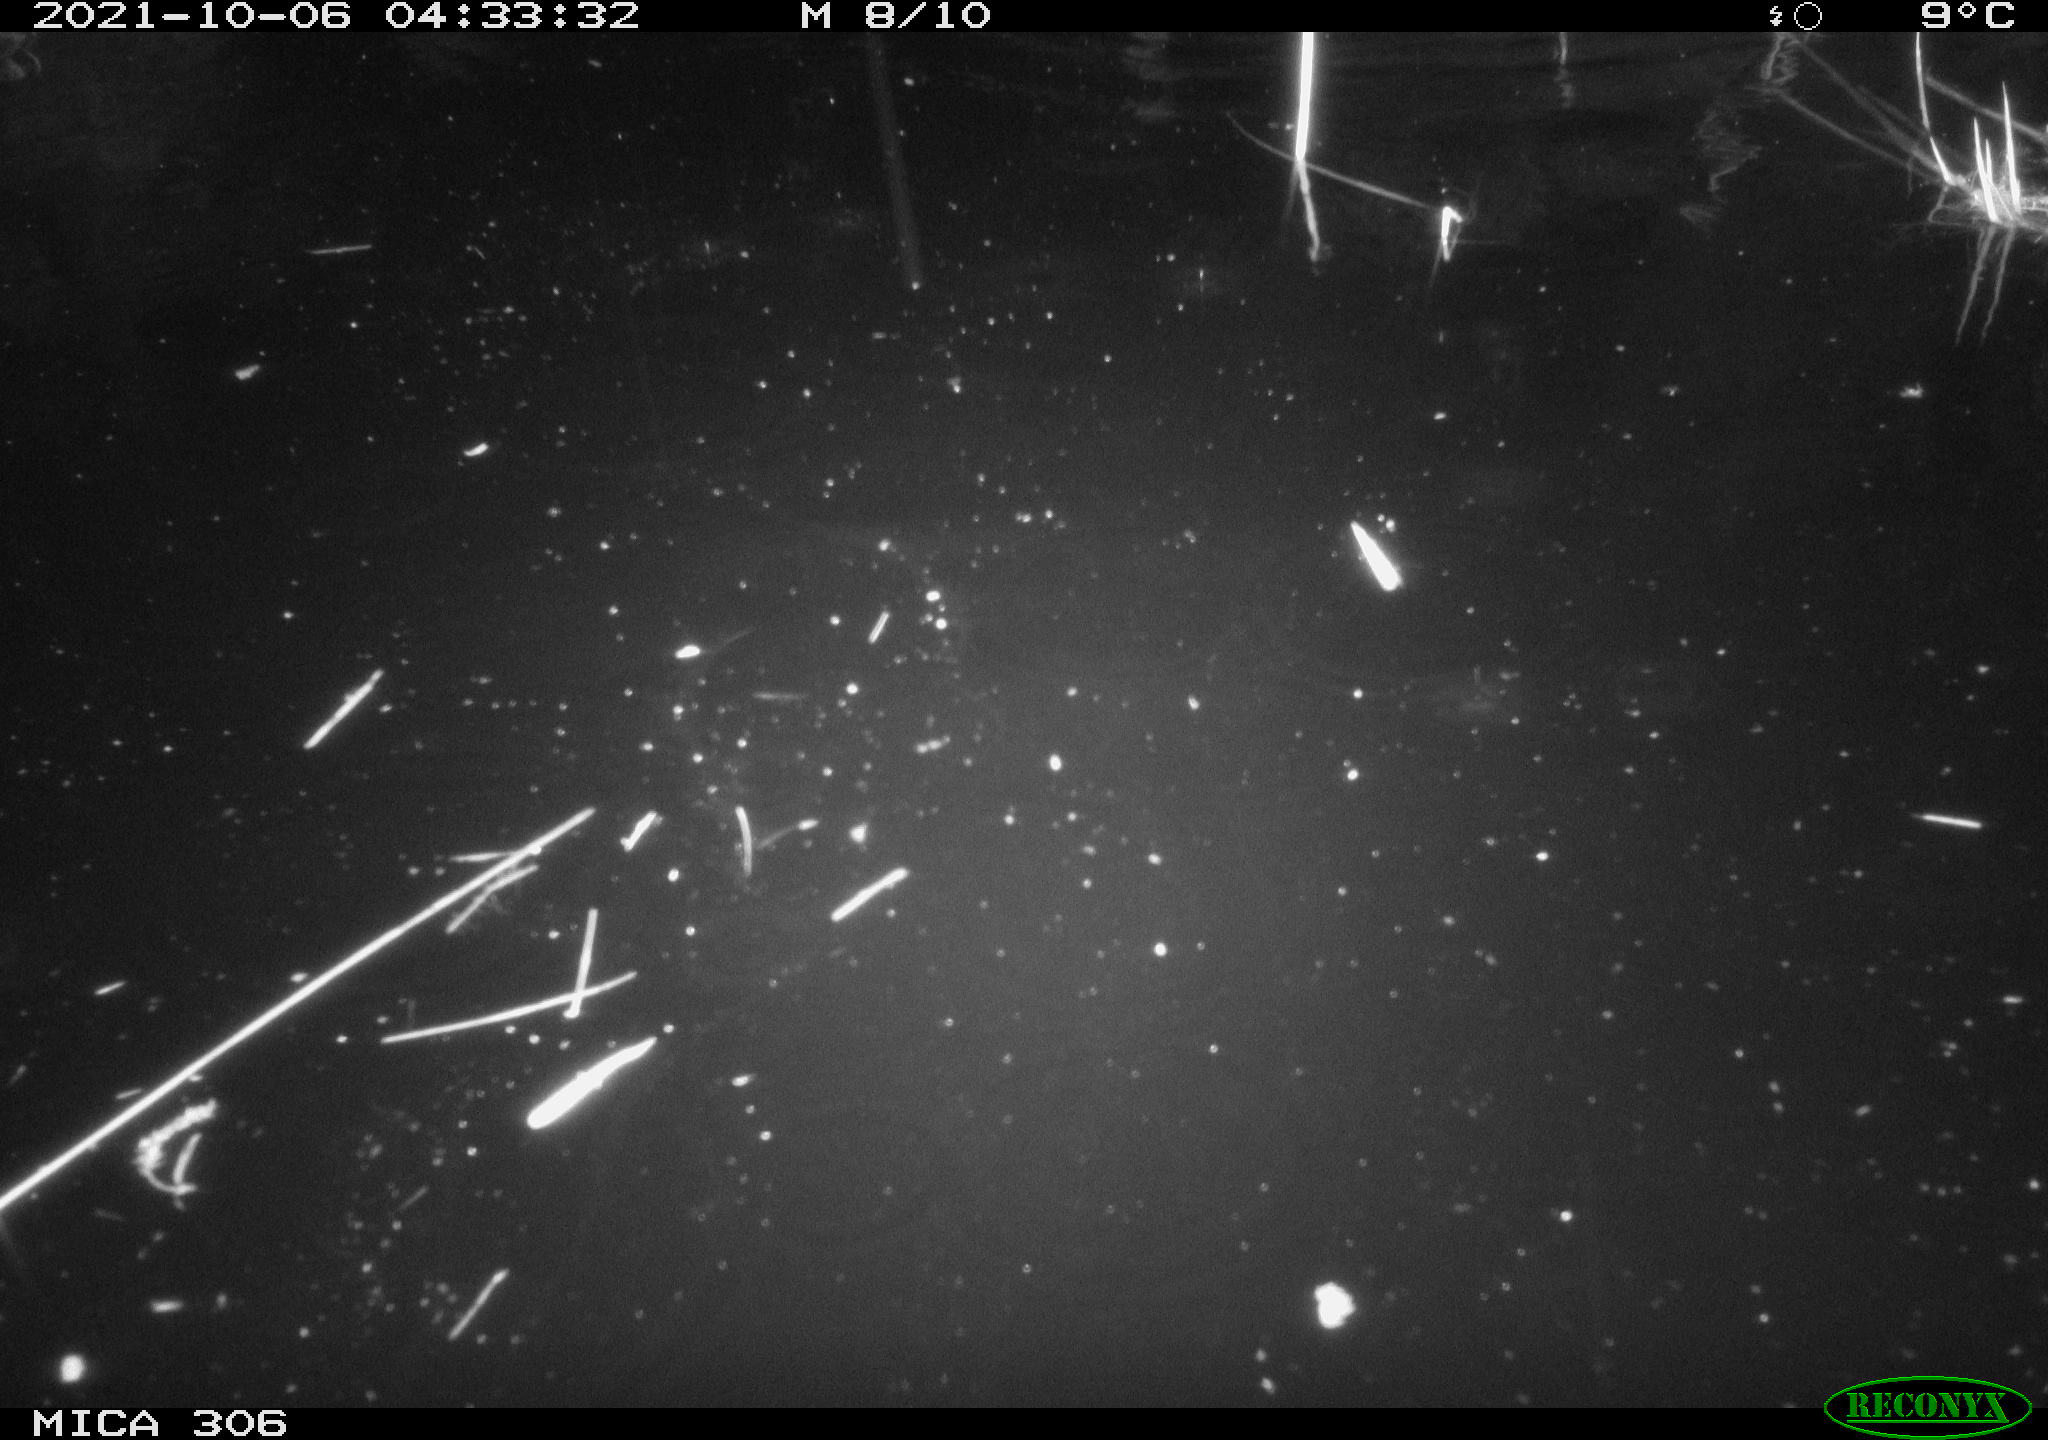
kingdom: Animalia
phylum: Chordata
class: Mammalia
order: Rodentia
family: Cricetidae
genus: Ondatra
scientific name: Ondatra zibethicus
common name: Muskrat
